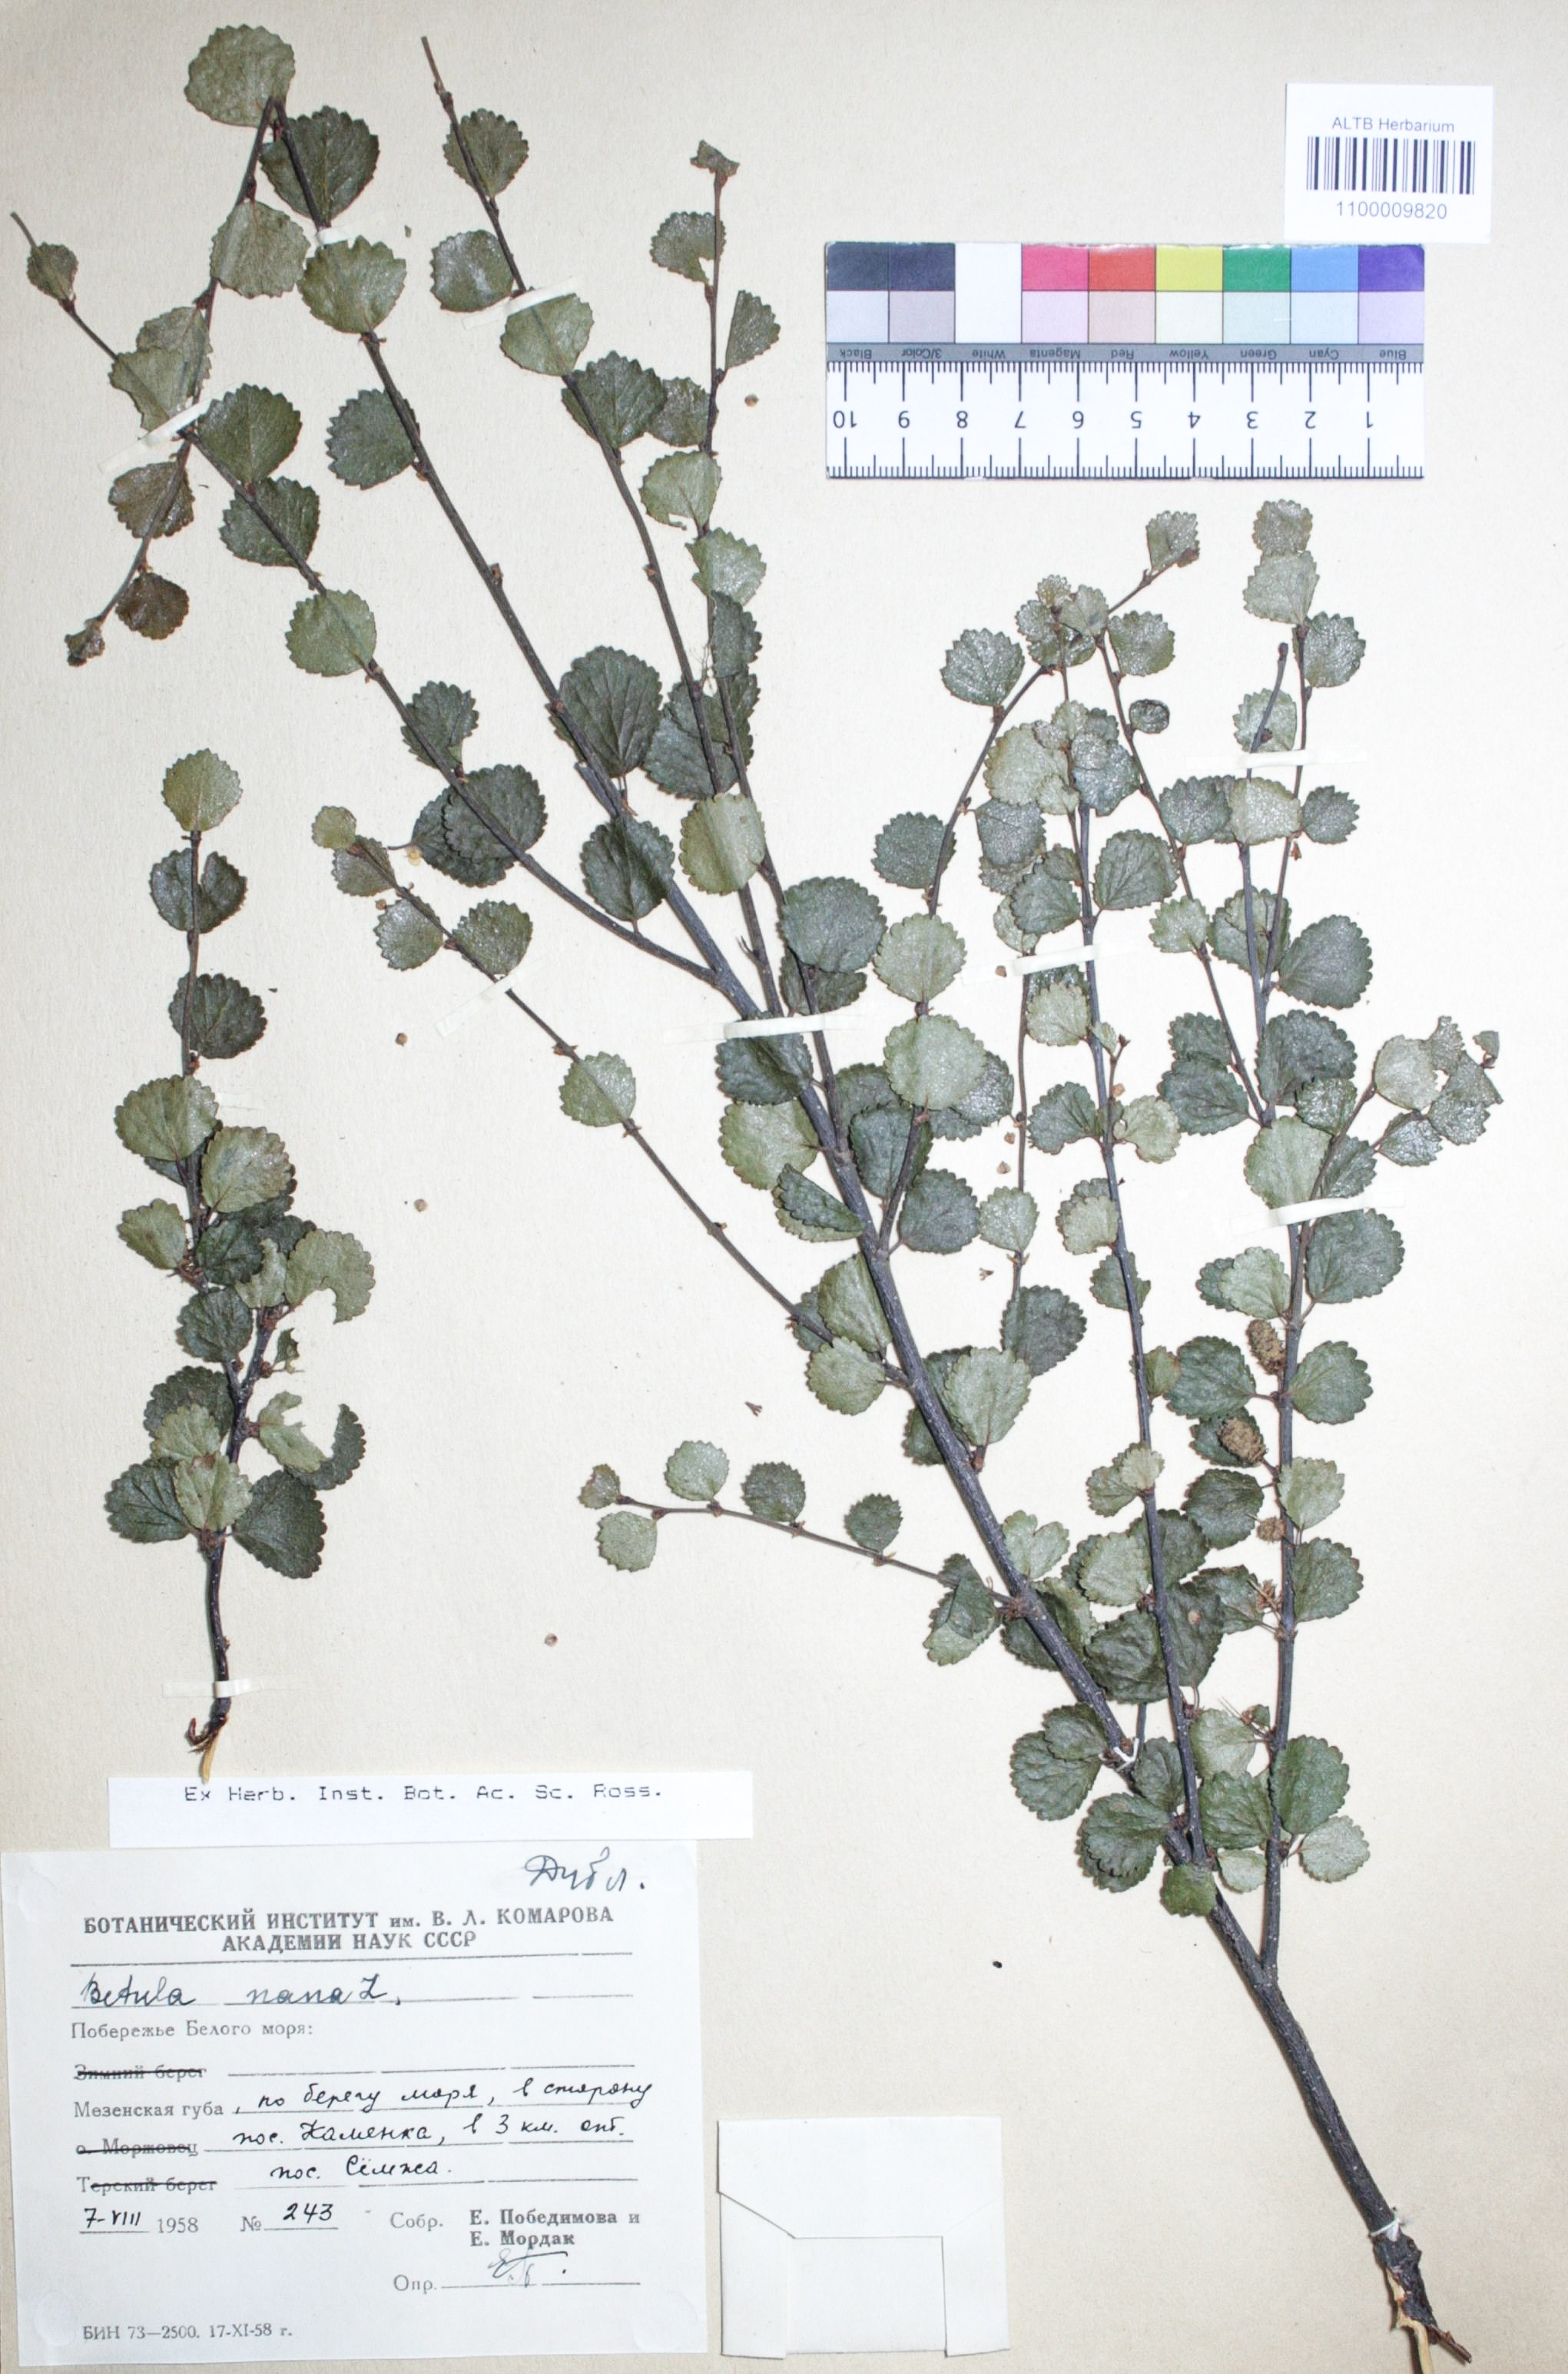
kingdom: Plantae
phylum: Tracheophyta
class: Magnoliopsida
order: Fagales
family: Betulaceae
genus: Betula
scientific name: Betula nana
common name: Arctic dwarf birch
